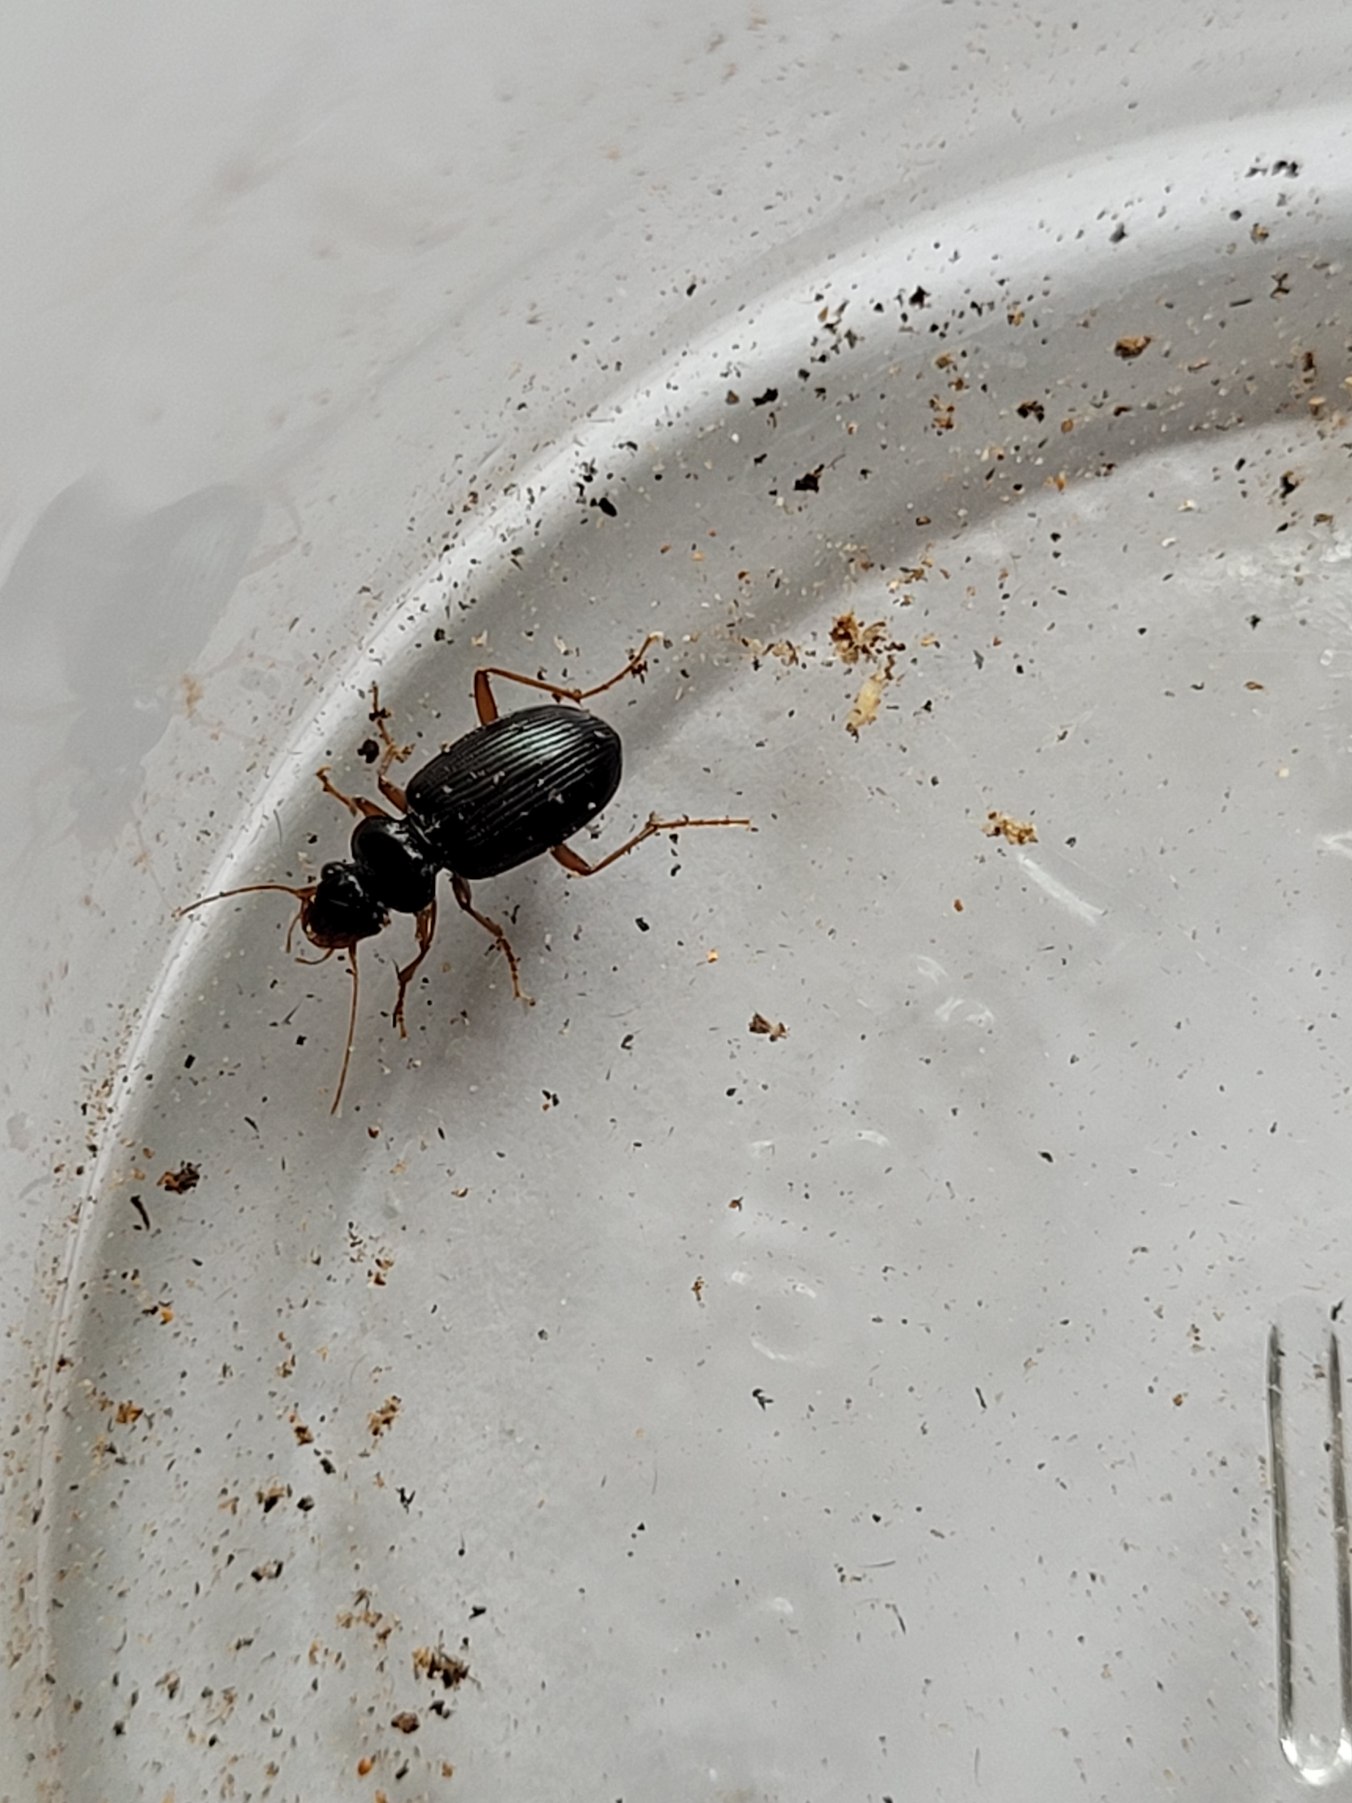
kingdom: Animalia
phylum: Arthropoda
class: Insecta
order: Coleoptera
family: Carabidae
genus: Leistus
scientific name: Leistus fulvibarbis
